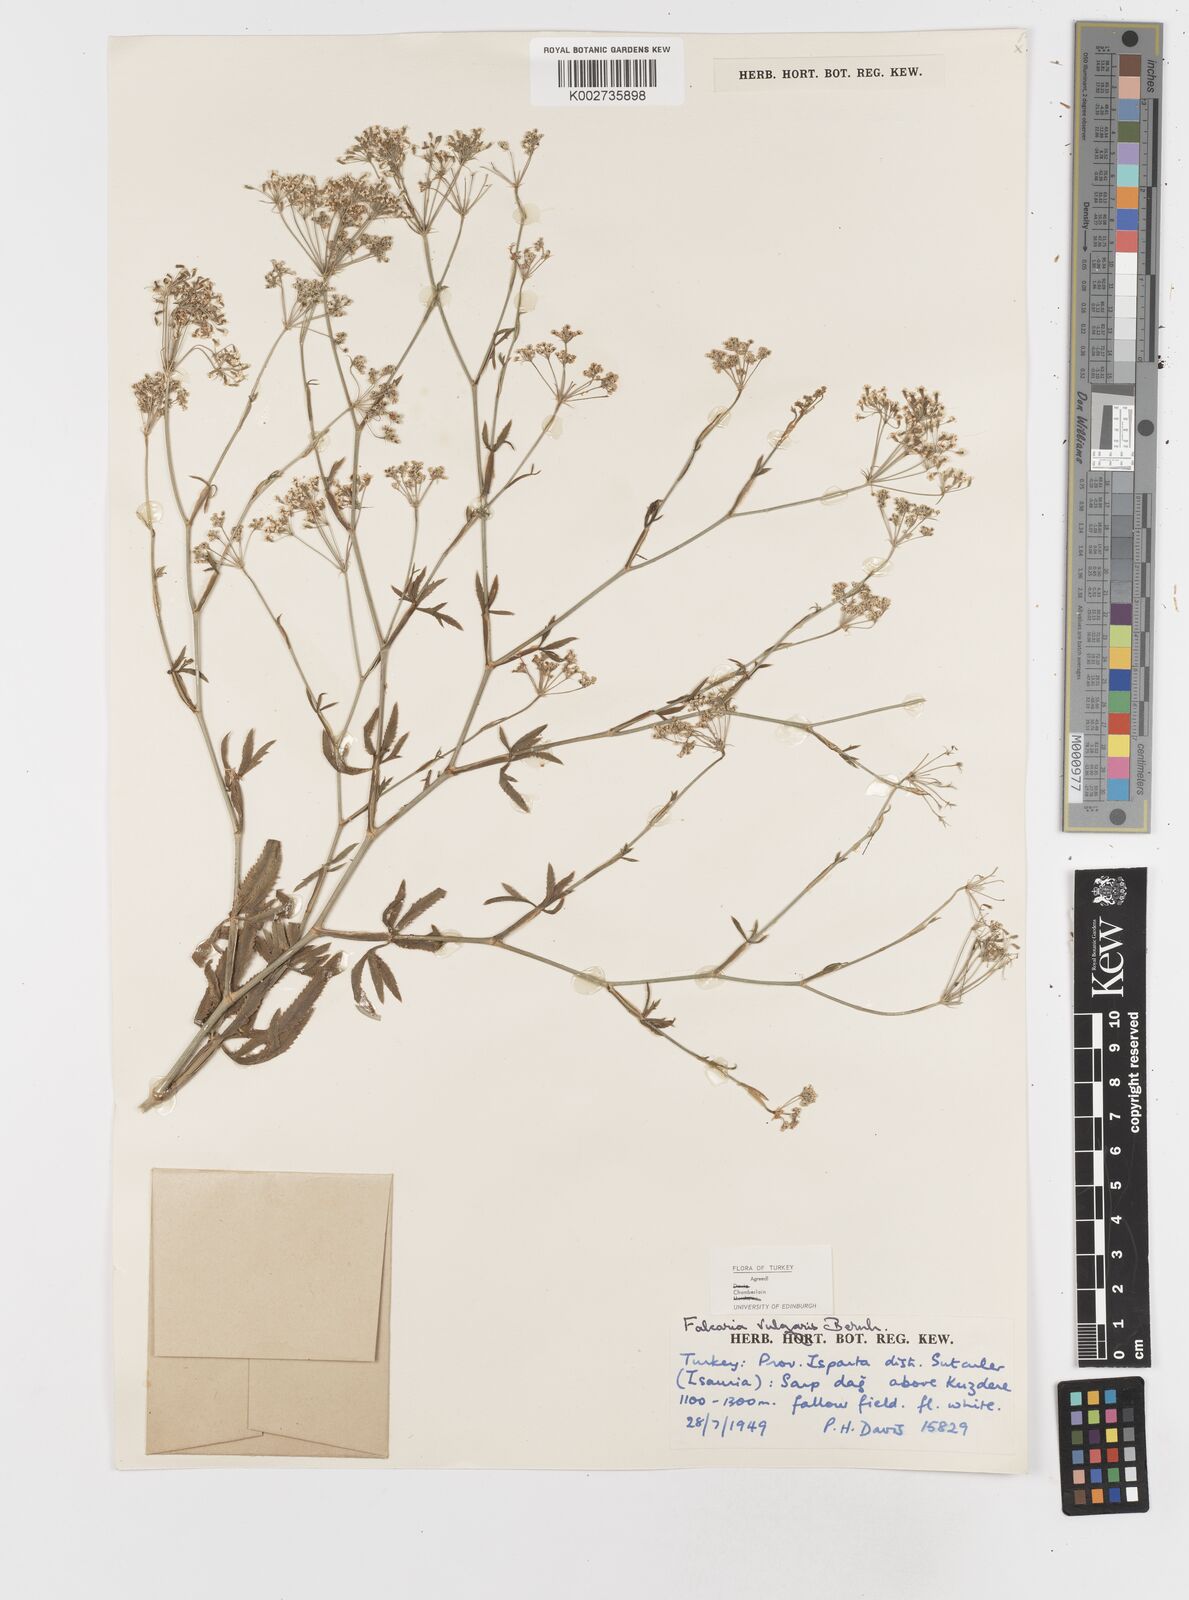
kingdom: Plantae
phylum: Tracheophyta
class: Magnoliopsida
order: Apiales
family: Apiaceae
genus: Falcaria
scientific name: Falcaria vulgaris
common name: Longleaf
